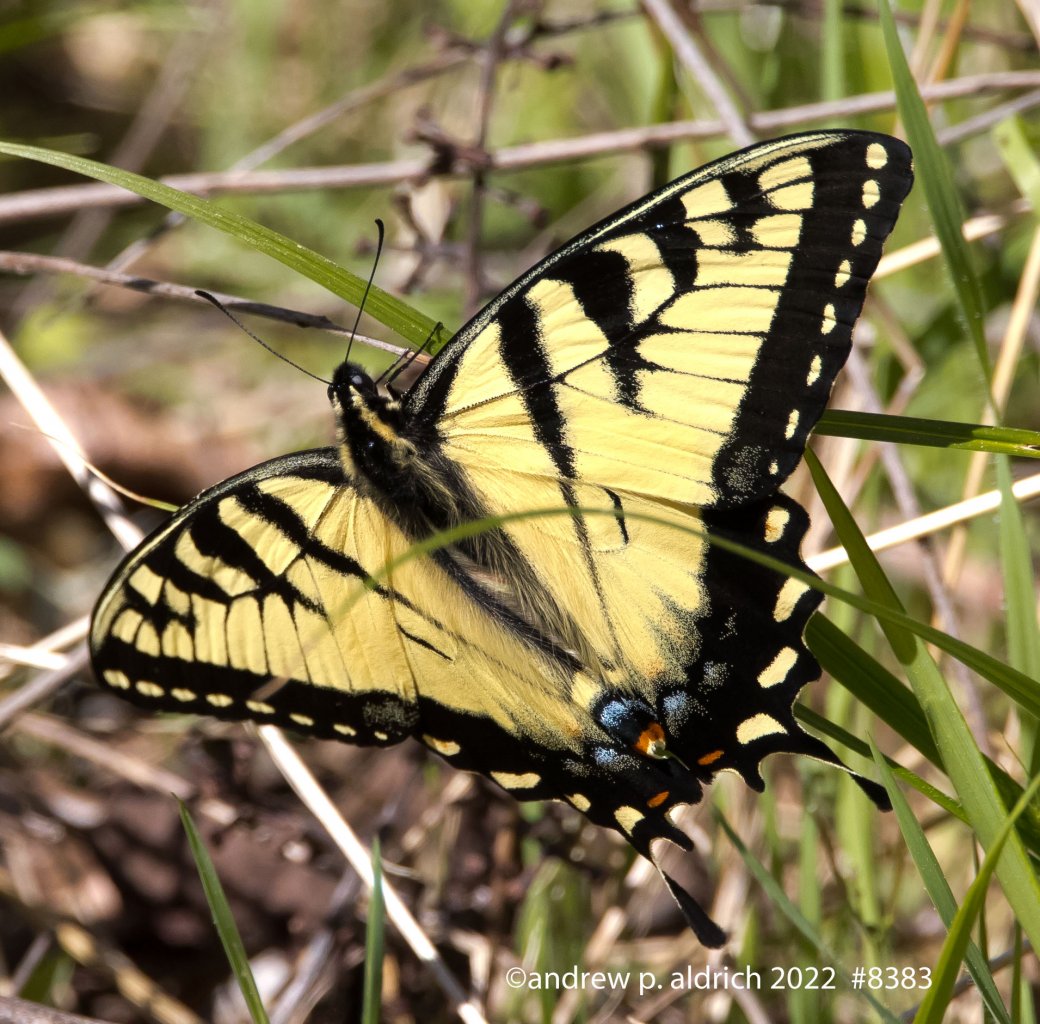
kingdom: Animalia
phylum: Arthropoda
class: Insecta
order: Lepidoptera
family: Papilionidae
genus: Pterourus
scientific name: Pterourus glaucus
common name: Eastern Tiger Swallowtail
